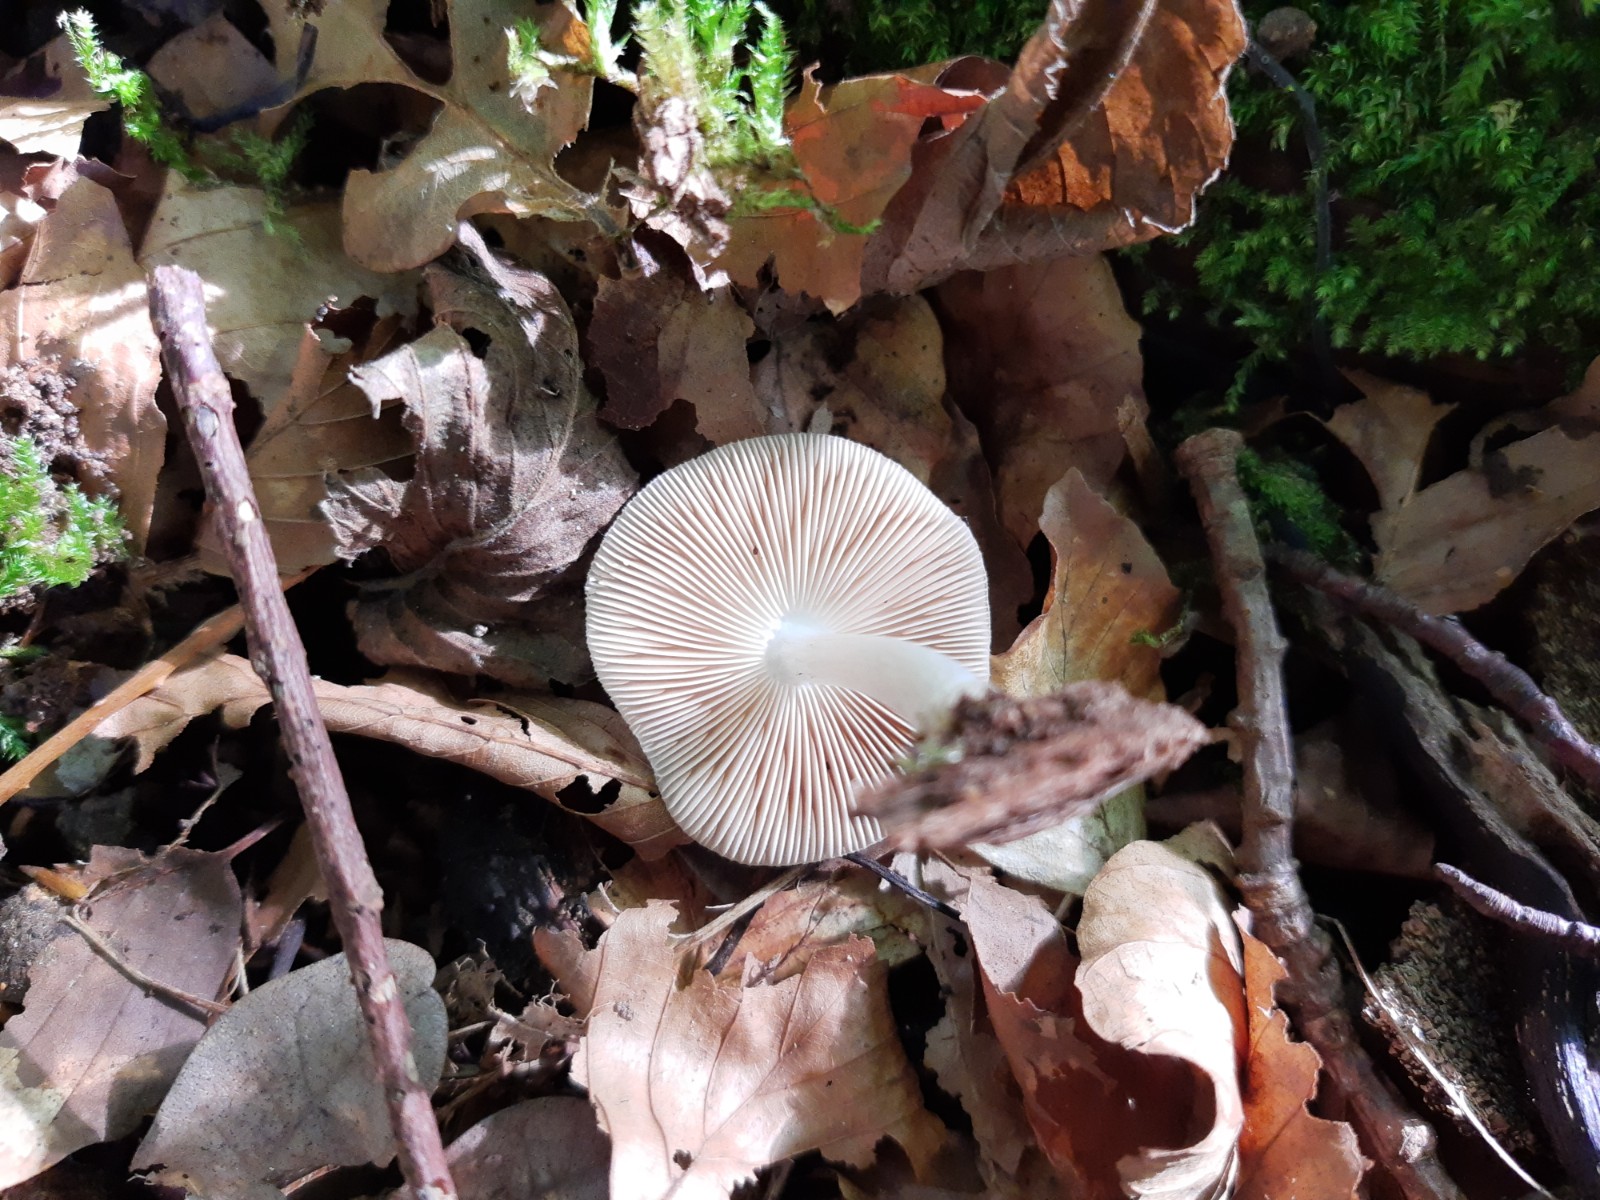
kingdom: Fungi
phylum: Basidiomycota
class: Agaricomycetes
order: Agaricales
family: Pluteaceae
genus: Pluteus
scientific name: Pluteus salicinus
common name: stiv skærmhat
